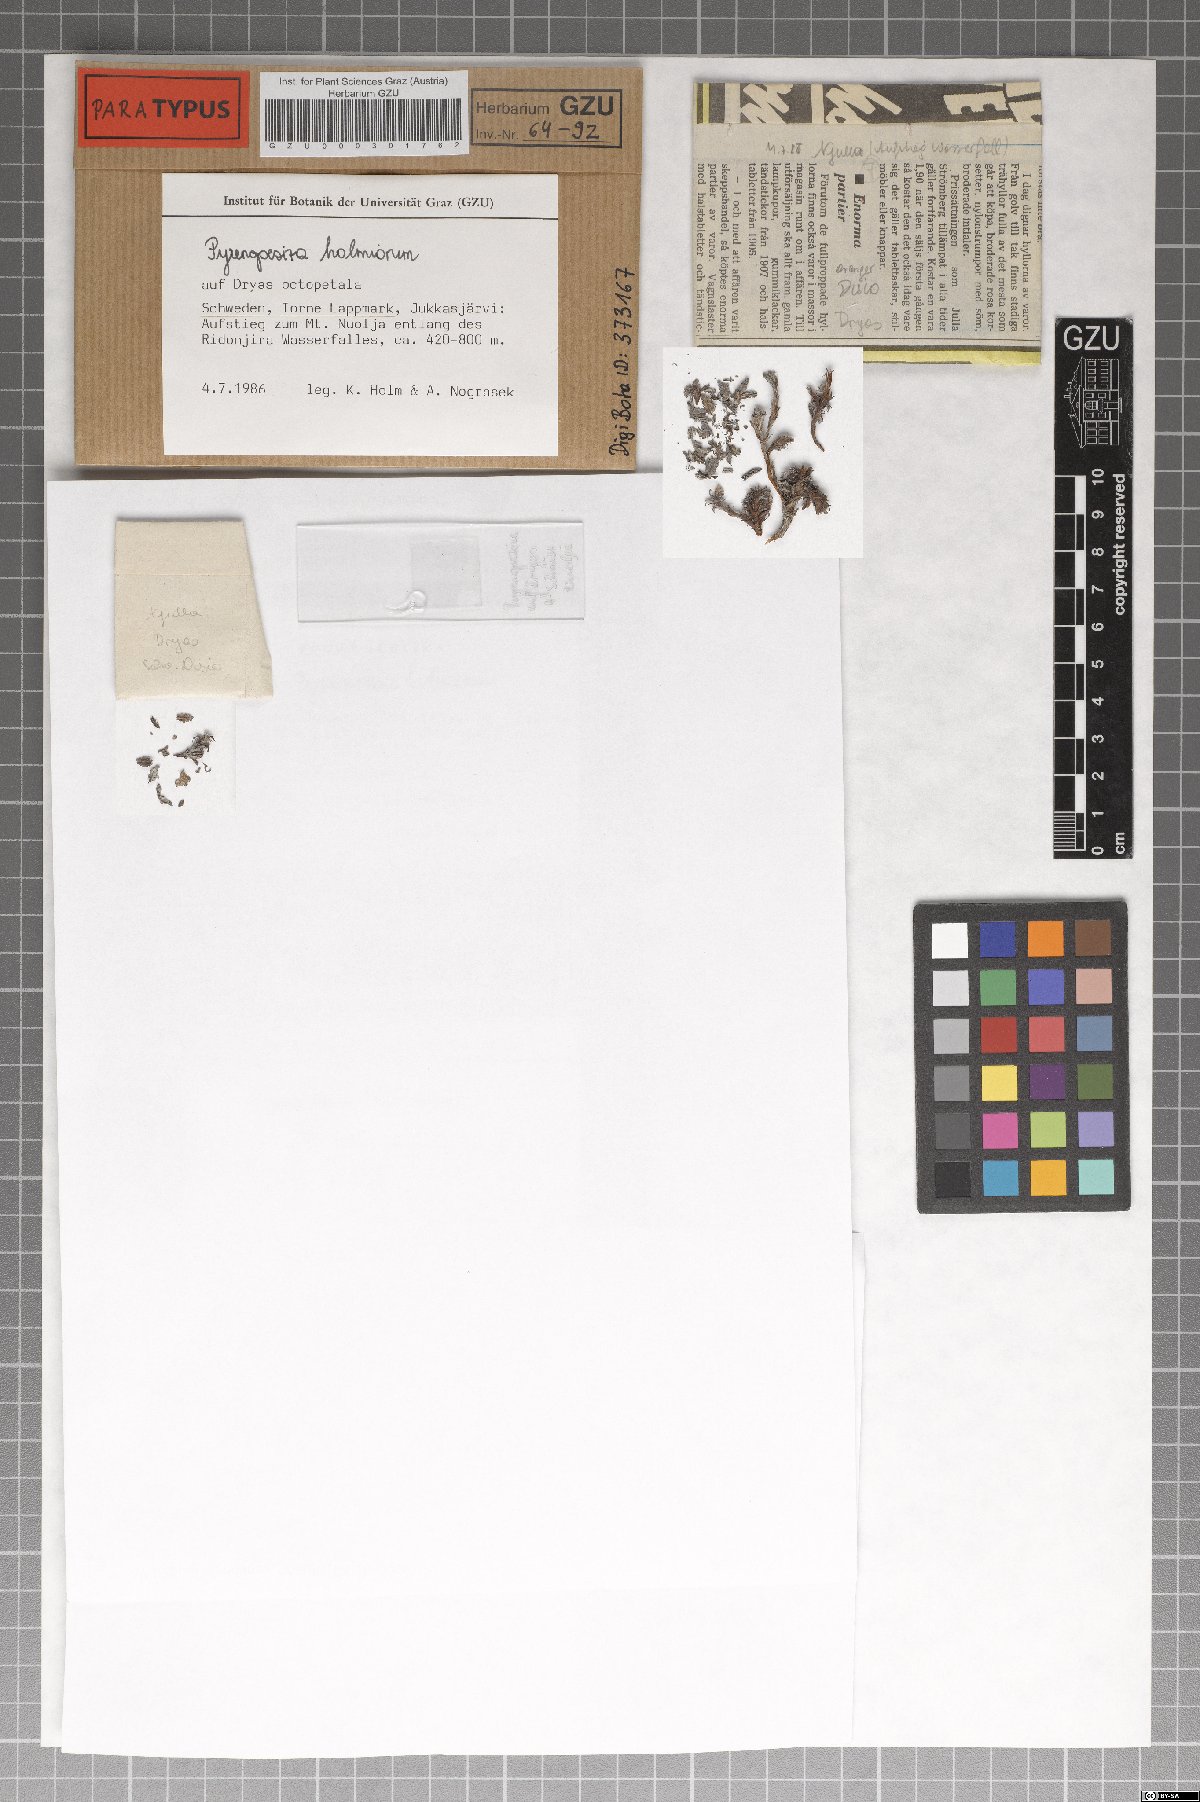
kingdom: Fungi
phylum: Ascomycota
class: Leotiomycetes
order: Helotiales
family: Ploettnerulaceae
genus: Pyrenopeziza
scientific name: Pyrenopeziza holmiorum
